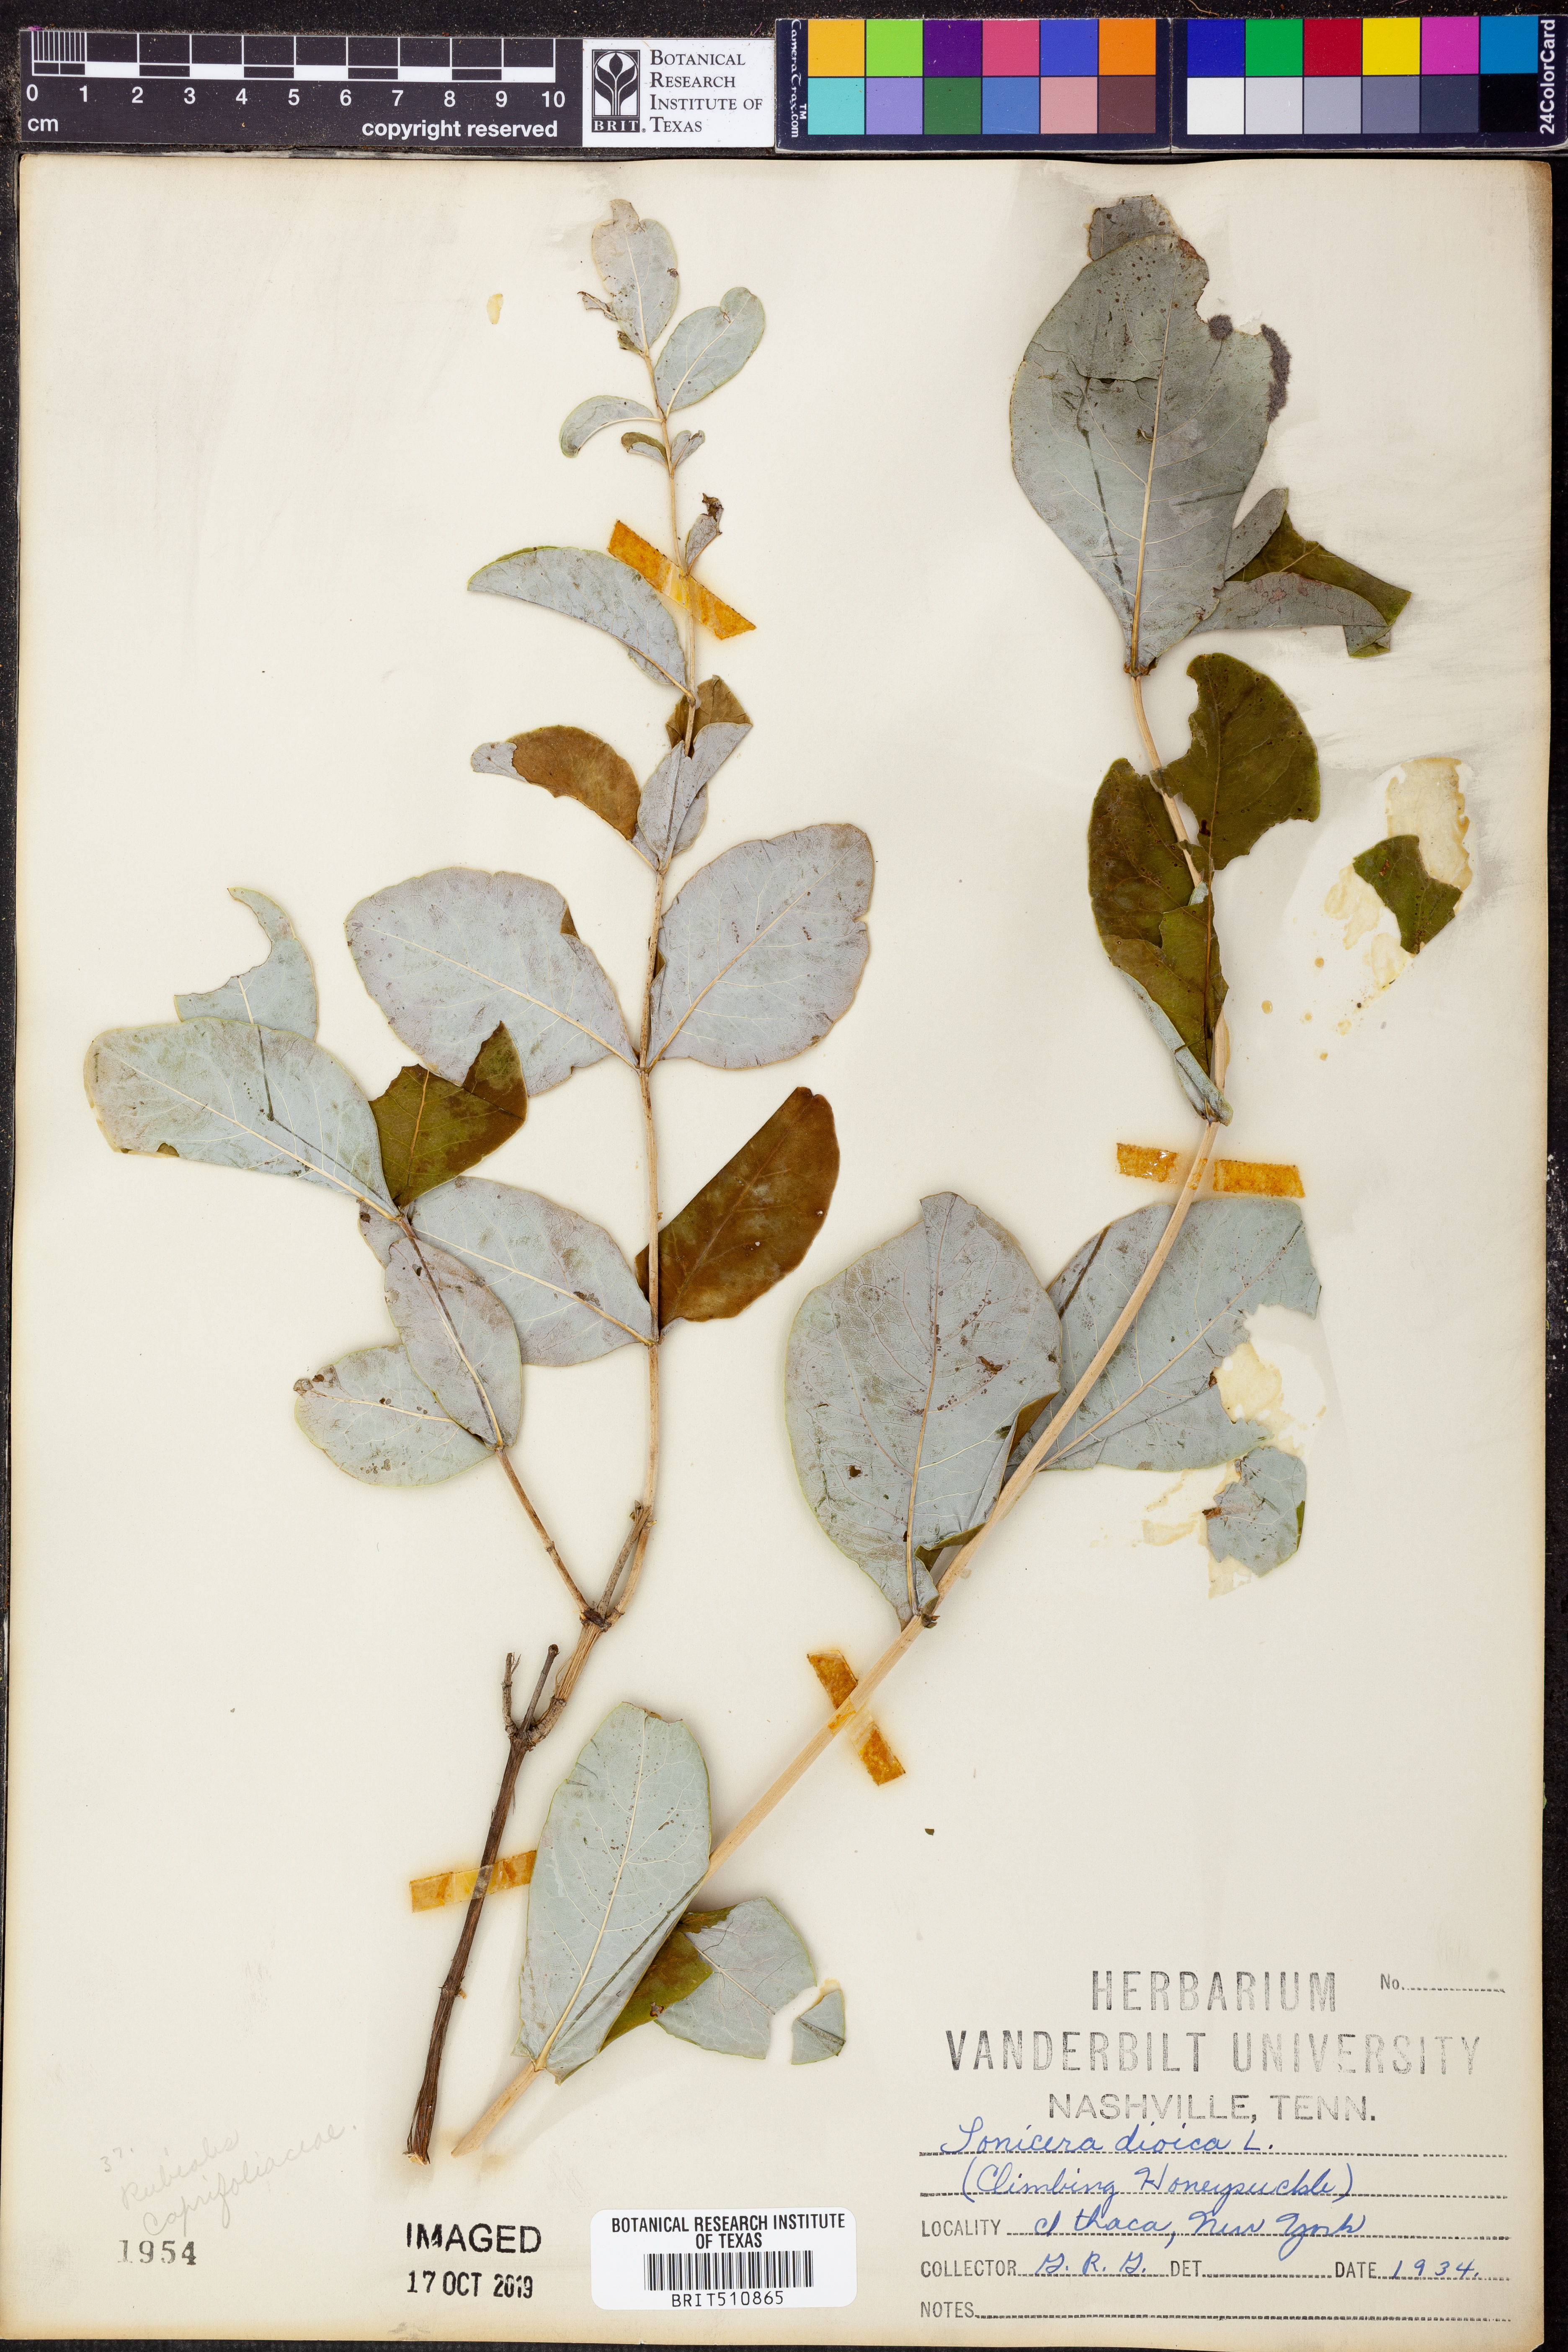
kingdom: Plantae
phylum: Tracheophyta
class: Magnoliopsida
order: Dipsacales
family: Caprifoliaceae
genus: Lonicera
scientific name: Lonicera dioica
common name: Limber honeysuckle
